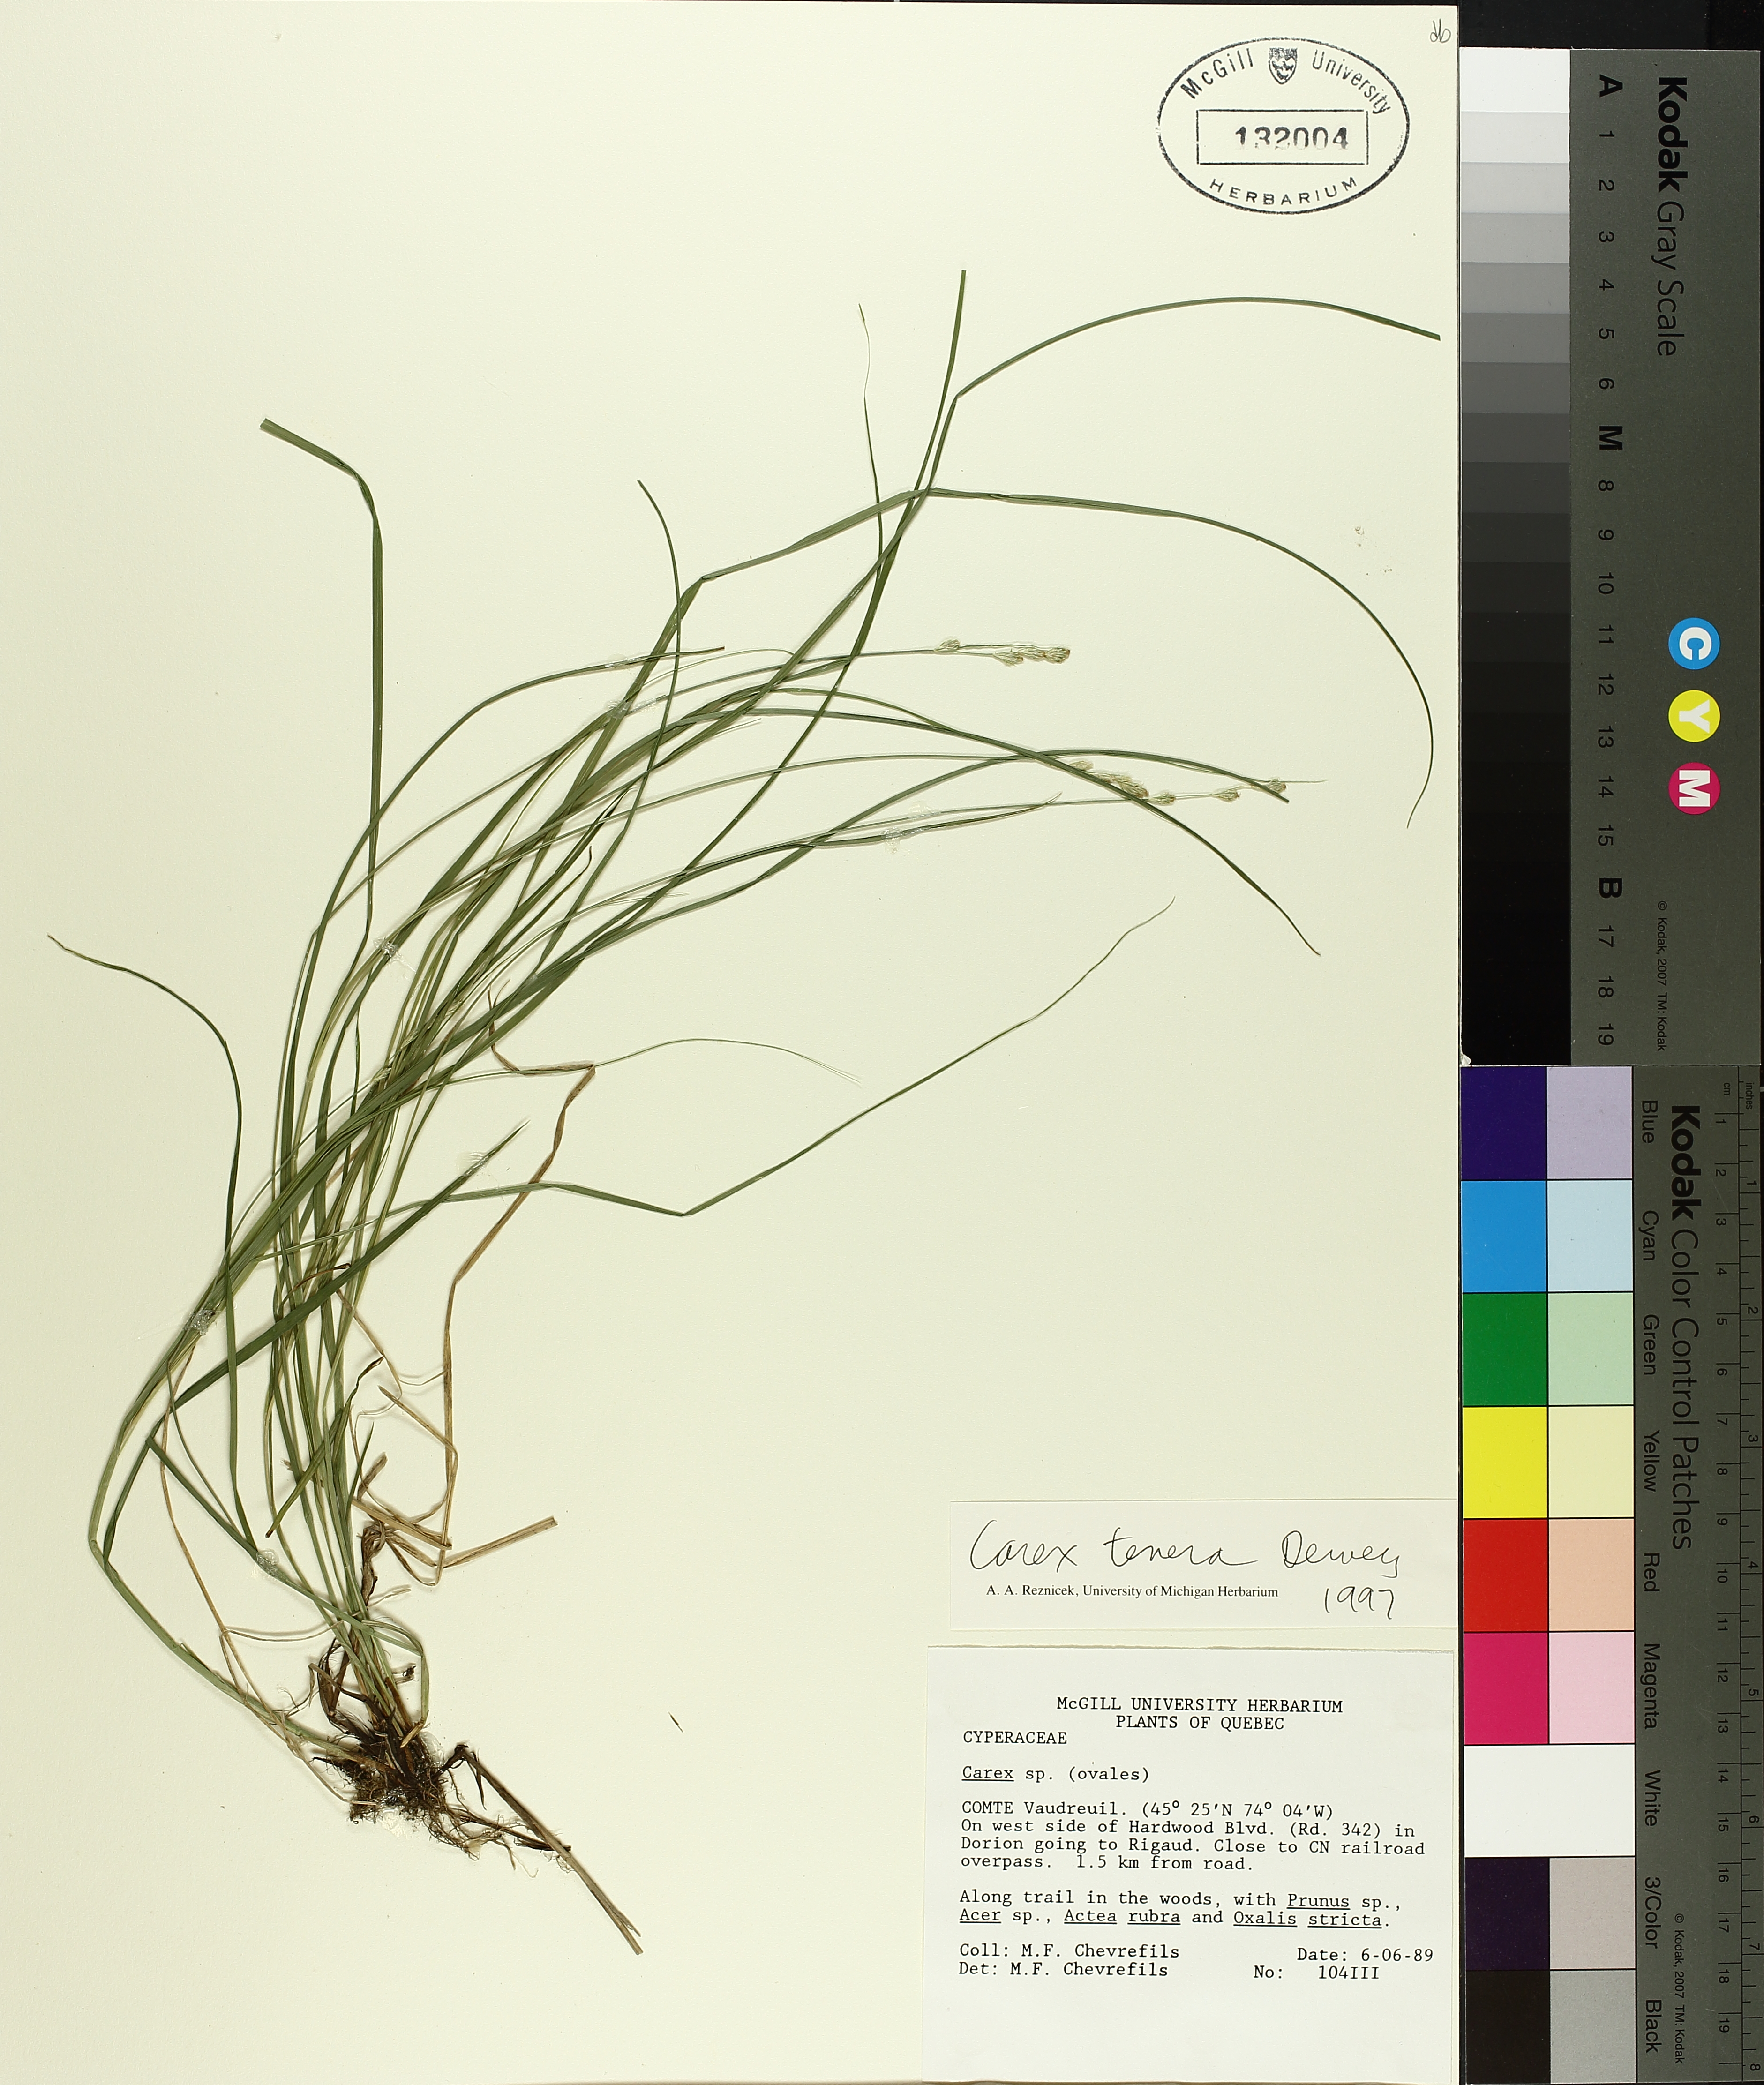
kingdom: Plantae
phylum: Tracheophyta
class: Liliopsida
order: Poales
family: Cyperaceae
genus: Carex
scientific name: Carex tenera
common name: Broad-fruited sedge
